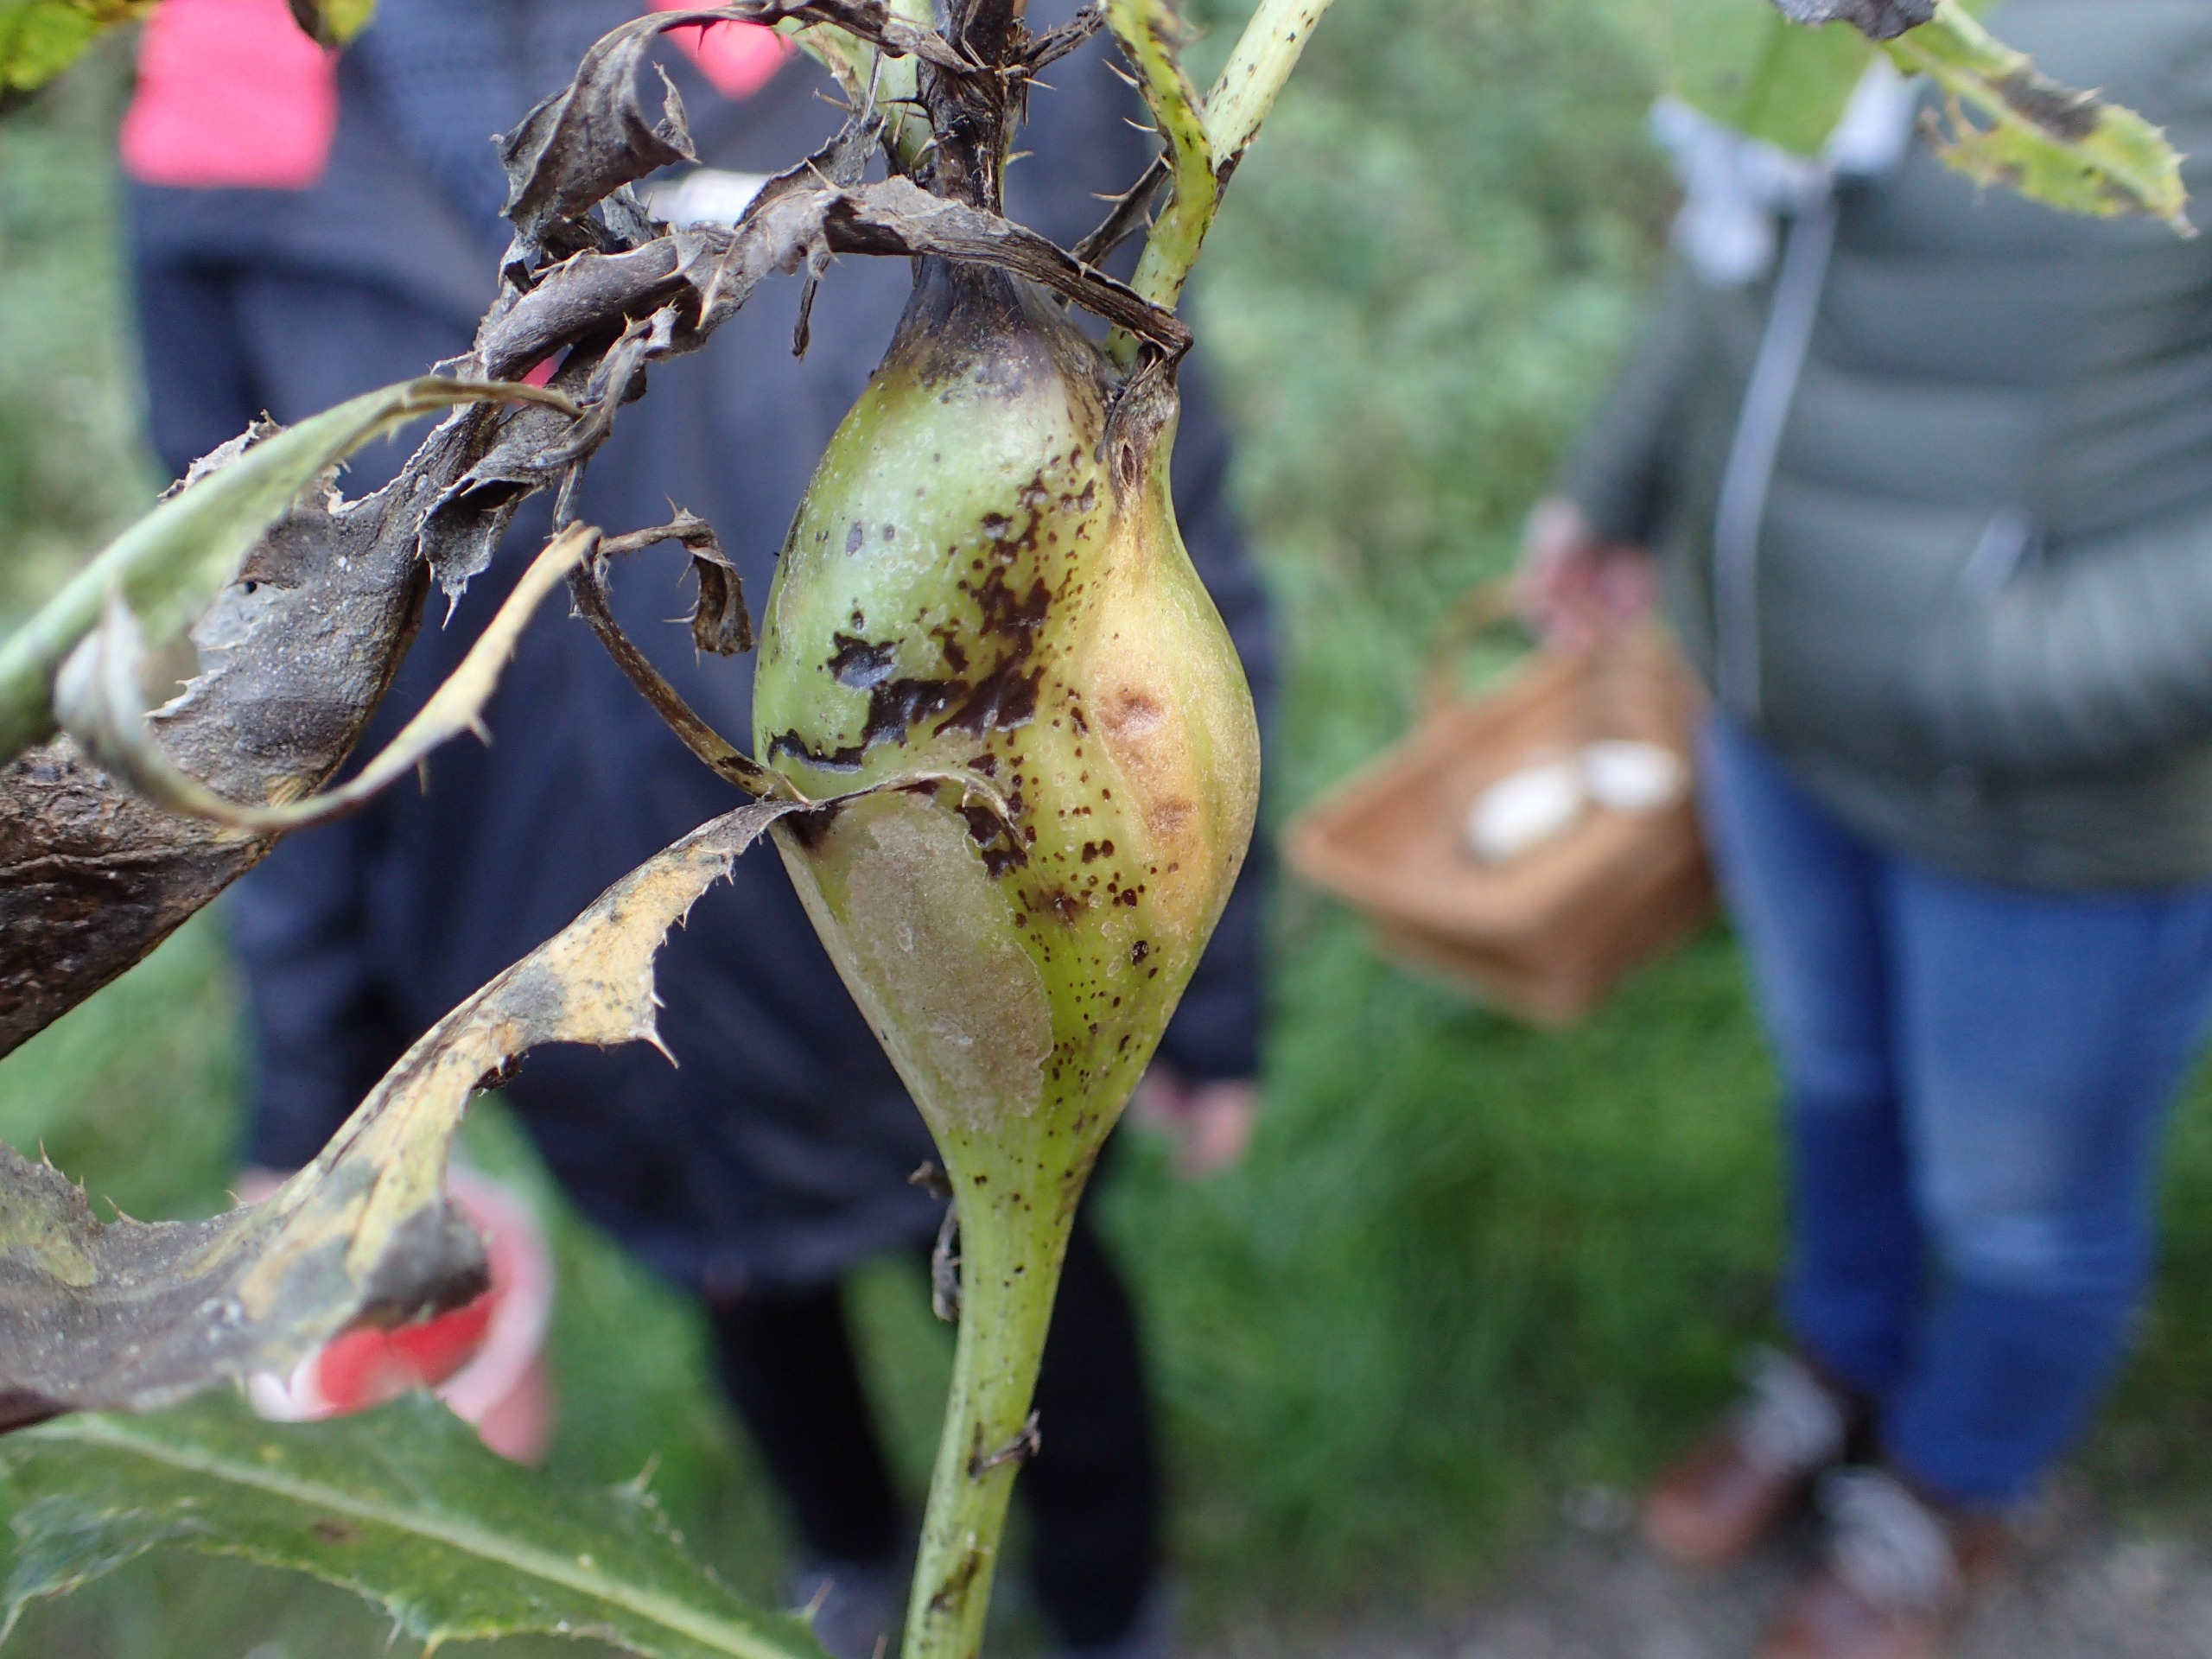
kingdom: Animalia
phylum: Arthropoda
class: Insecta
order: Diptera
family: Tephritidae
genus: Urophora
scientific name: Urophora cardui
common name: Tidselbåndflue
